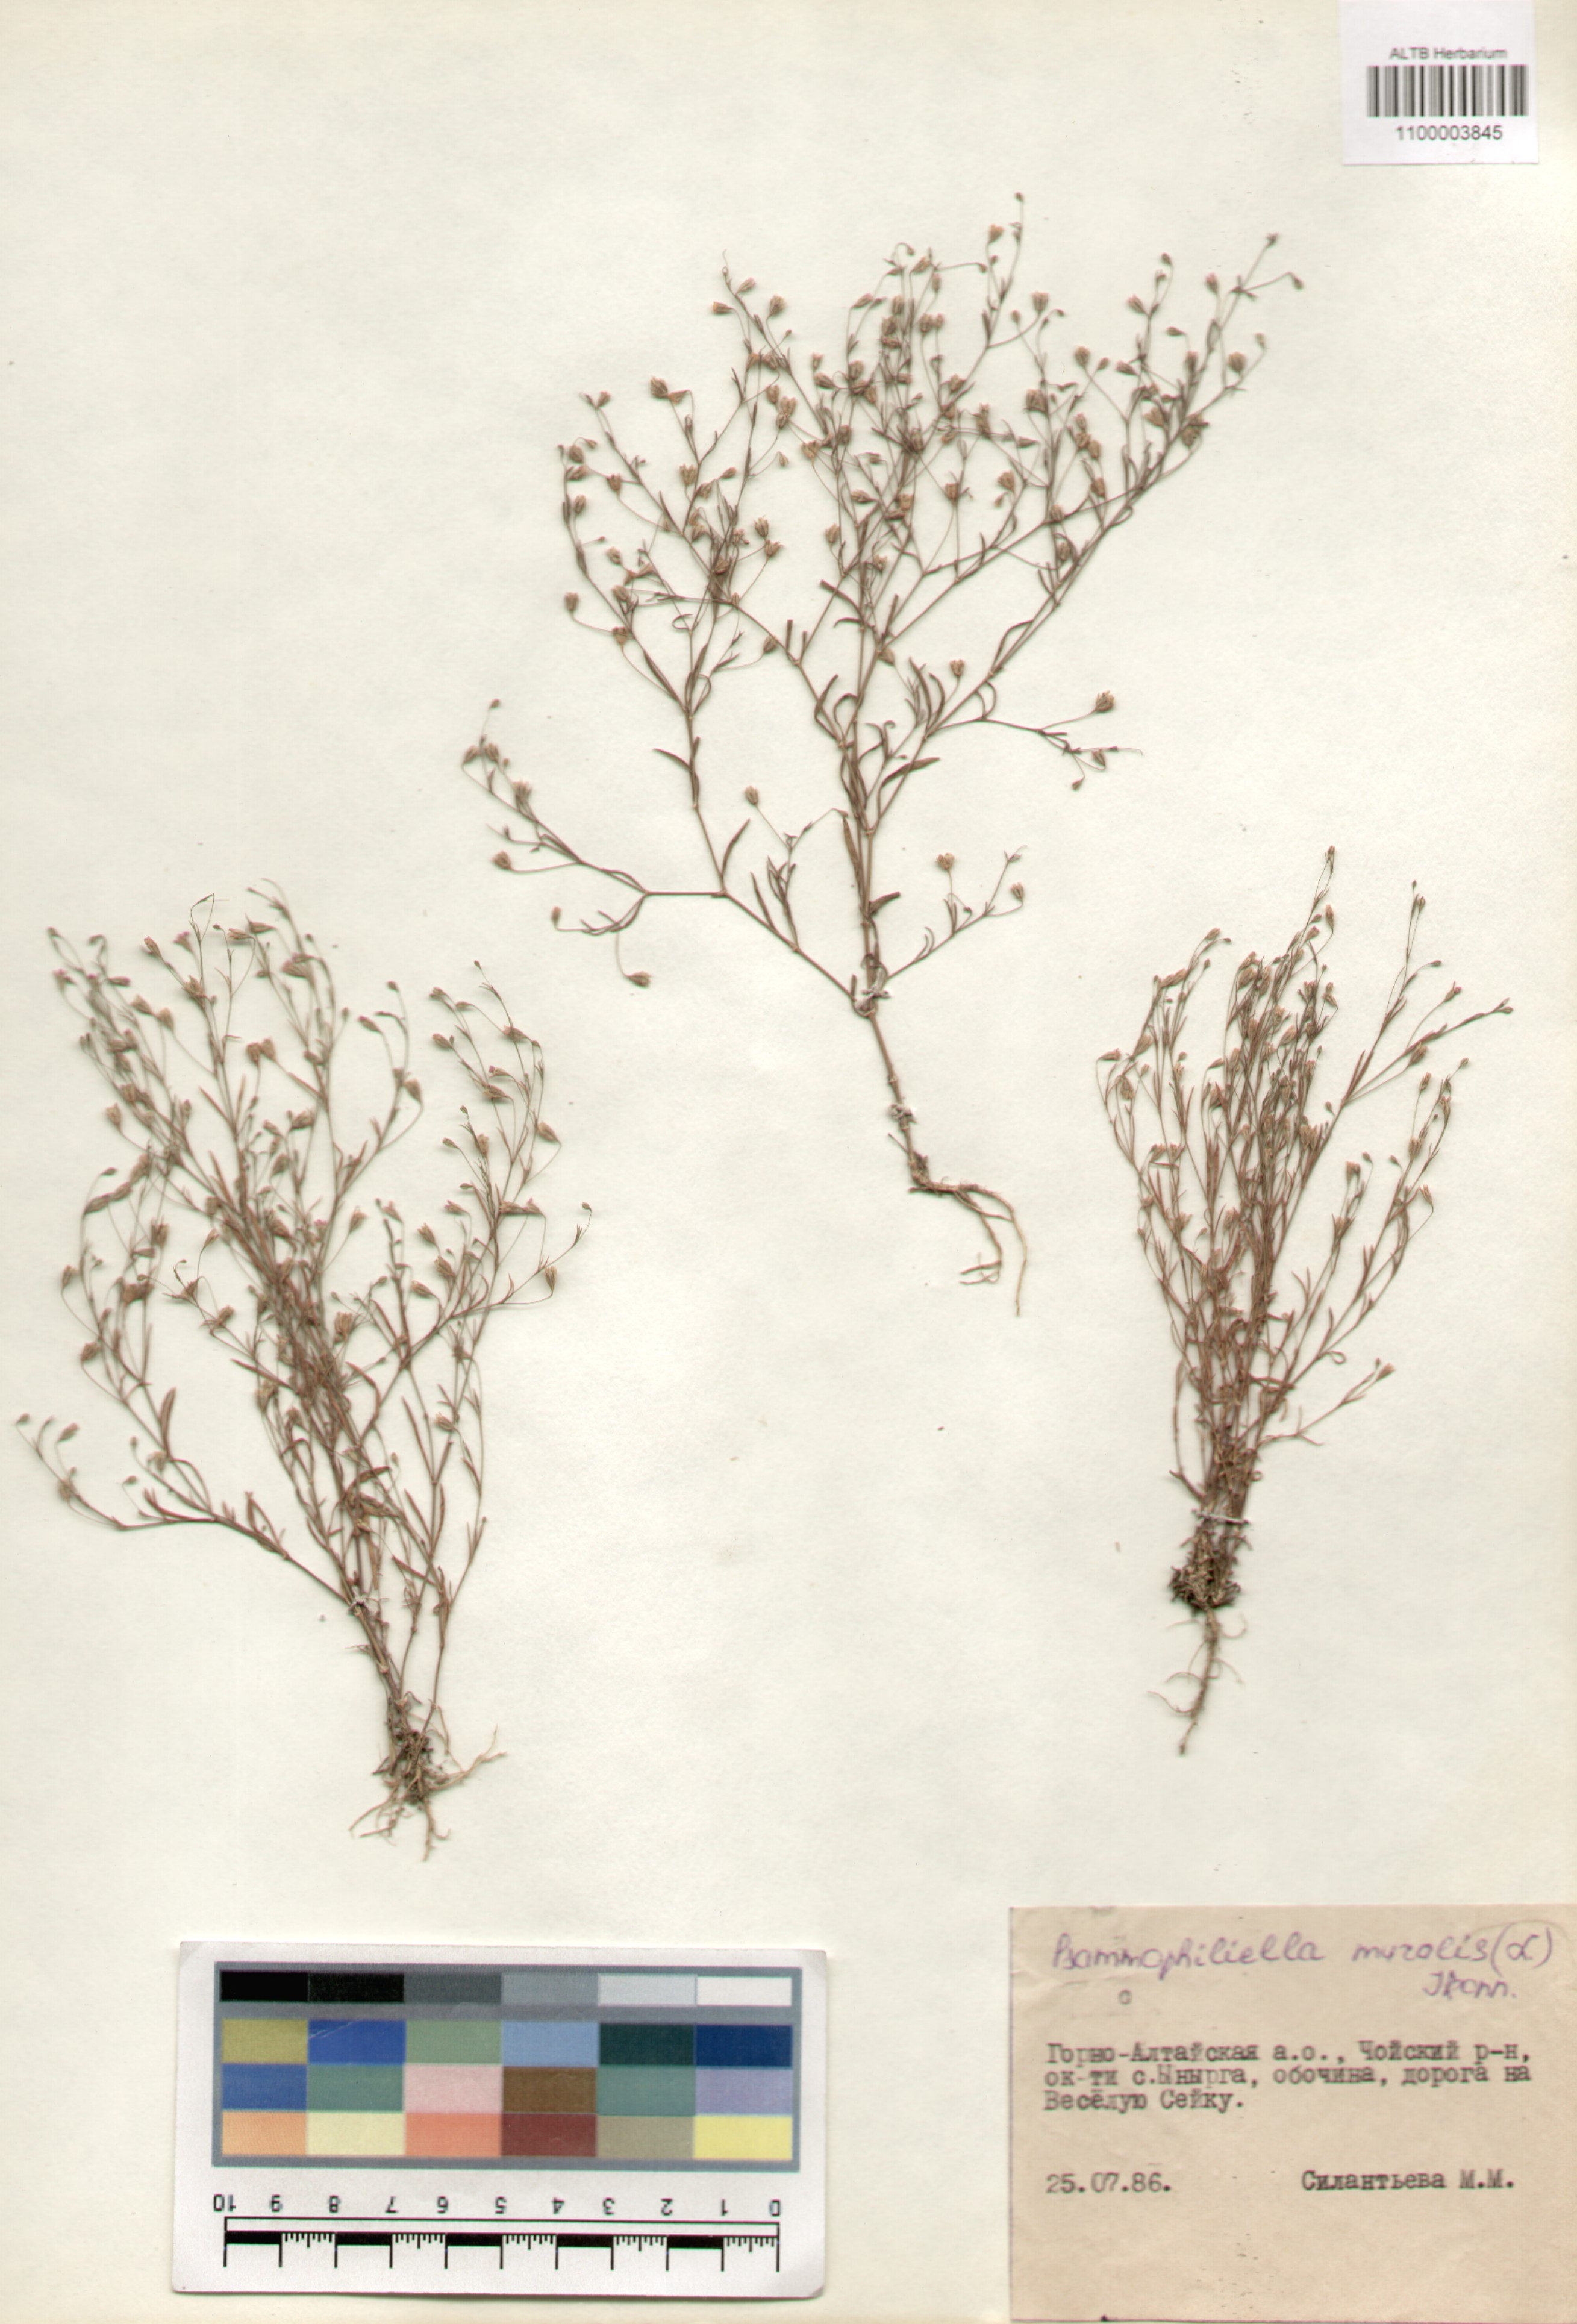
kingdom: Plantae
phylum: Tracheophyta
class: Magnoliopsida
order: Caryophyllales
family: Caryophyllaceae
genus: Psammophiliella
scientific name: Psammophiliella muralis
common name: Cushion baby's-breath
